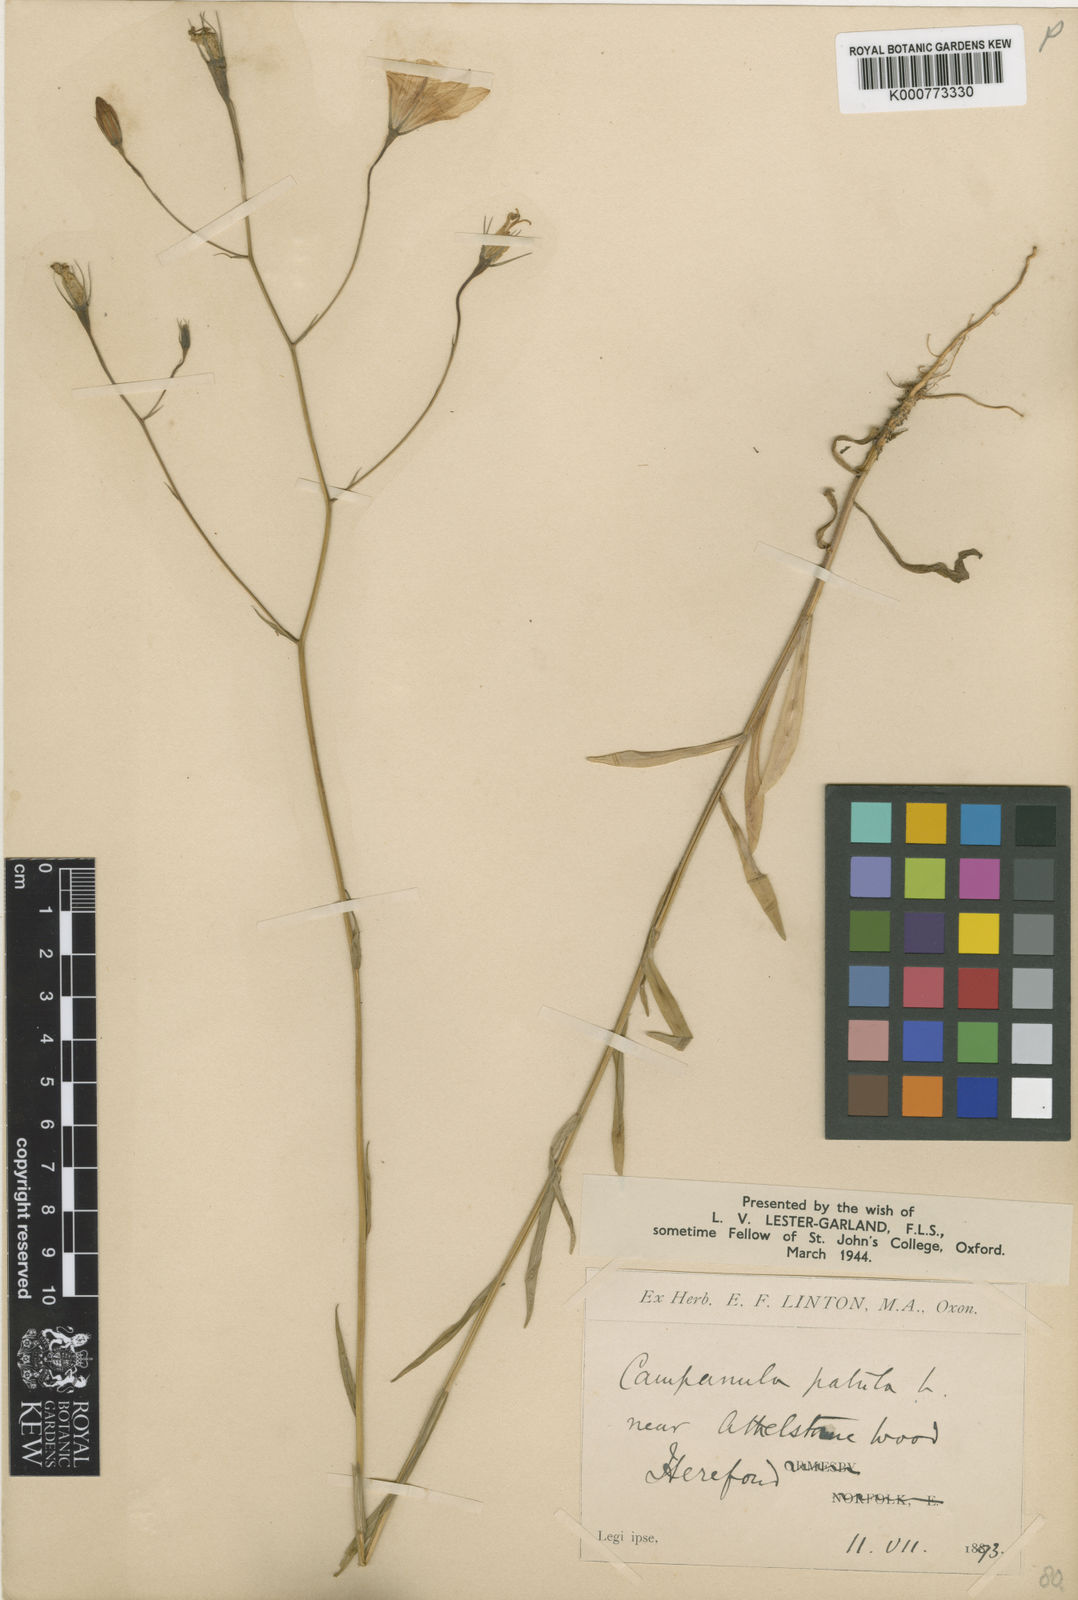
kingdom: Plantae
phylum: Tracheophyta
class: Magnoliopsida
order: Asterales
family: Campanulaceae
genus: Campanula
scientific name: Campanula patula
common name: Spreading bellflower
